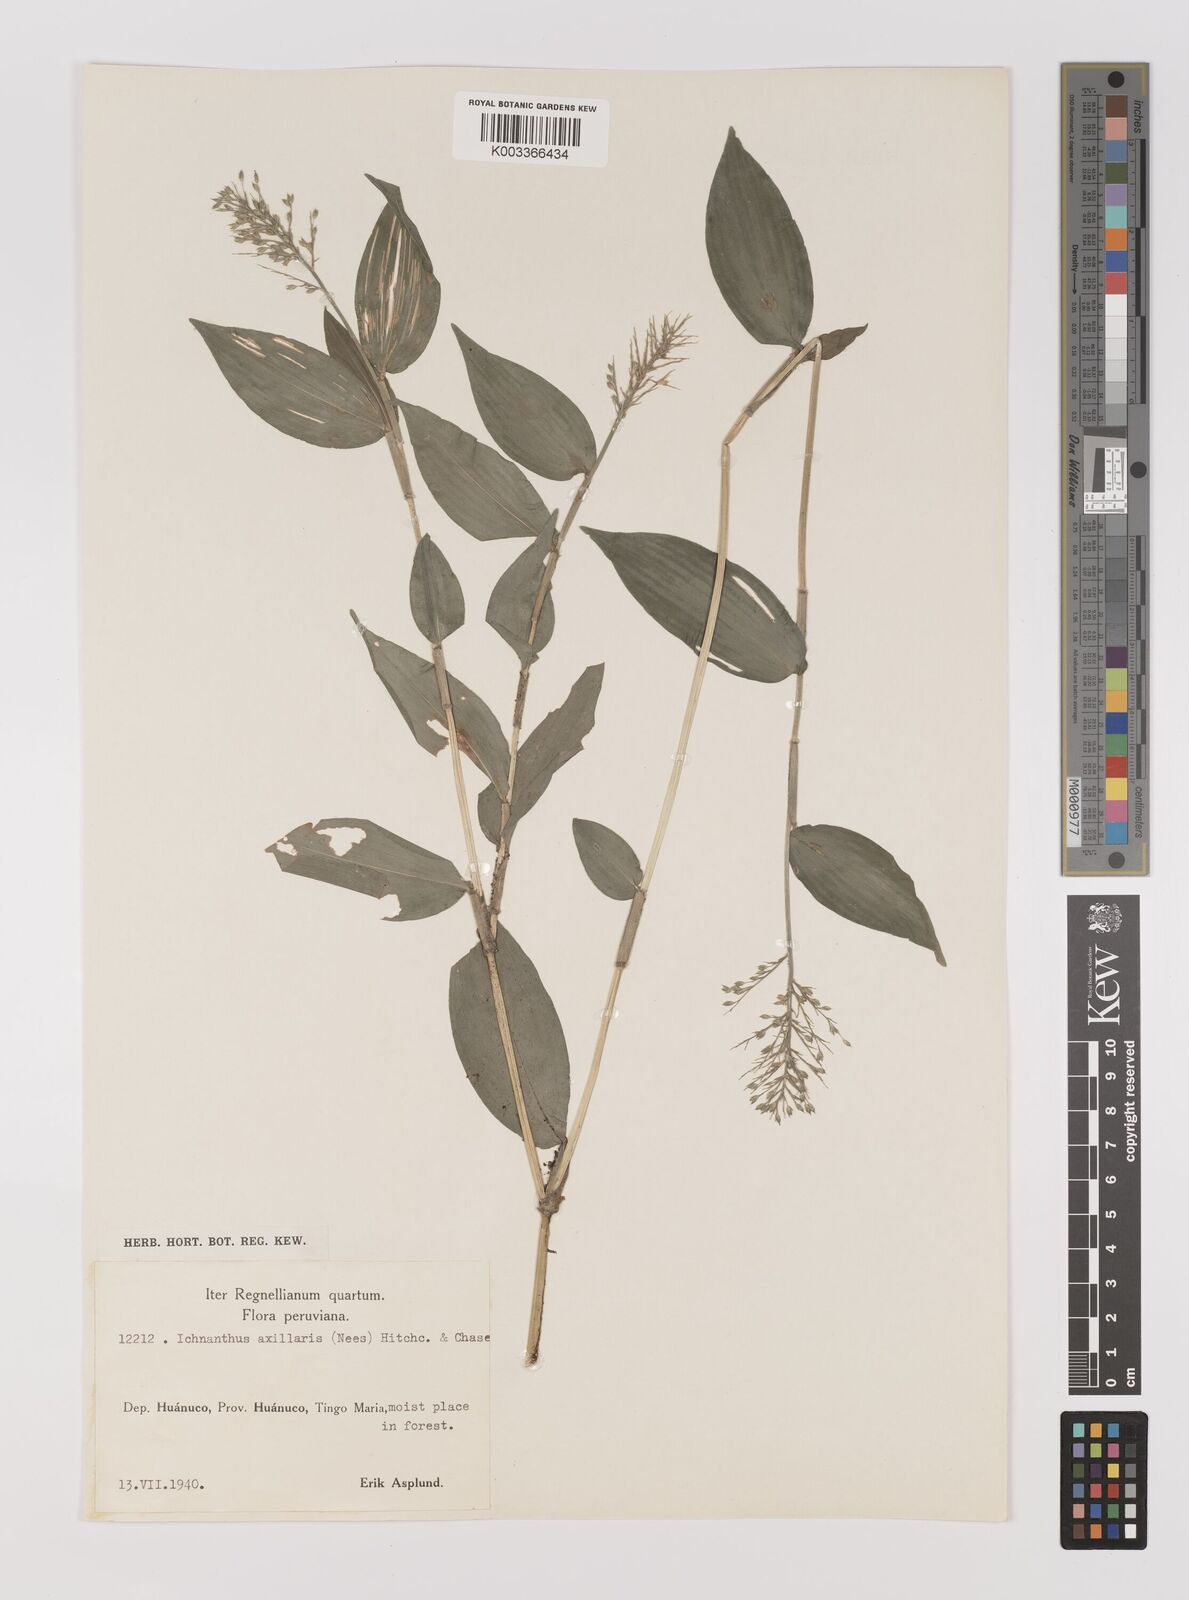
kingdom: Plantae
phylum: Tracheophyta
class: Liliopsida
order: Poales
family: Poaceae
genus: Ichnanthus
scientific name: Ichnanthus pallens
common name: Water grass
